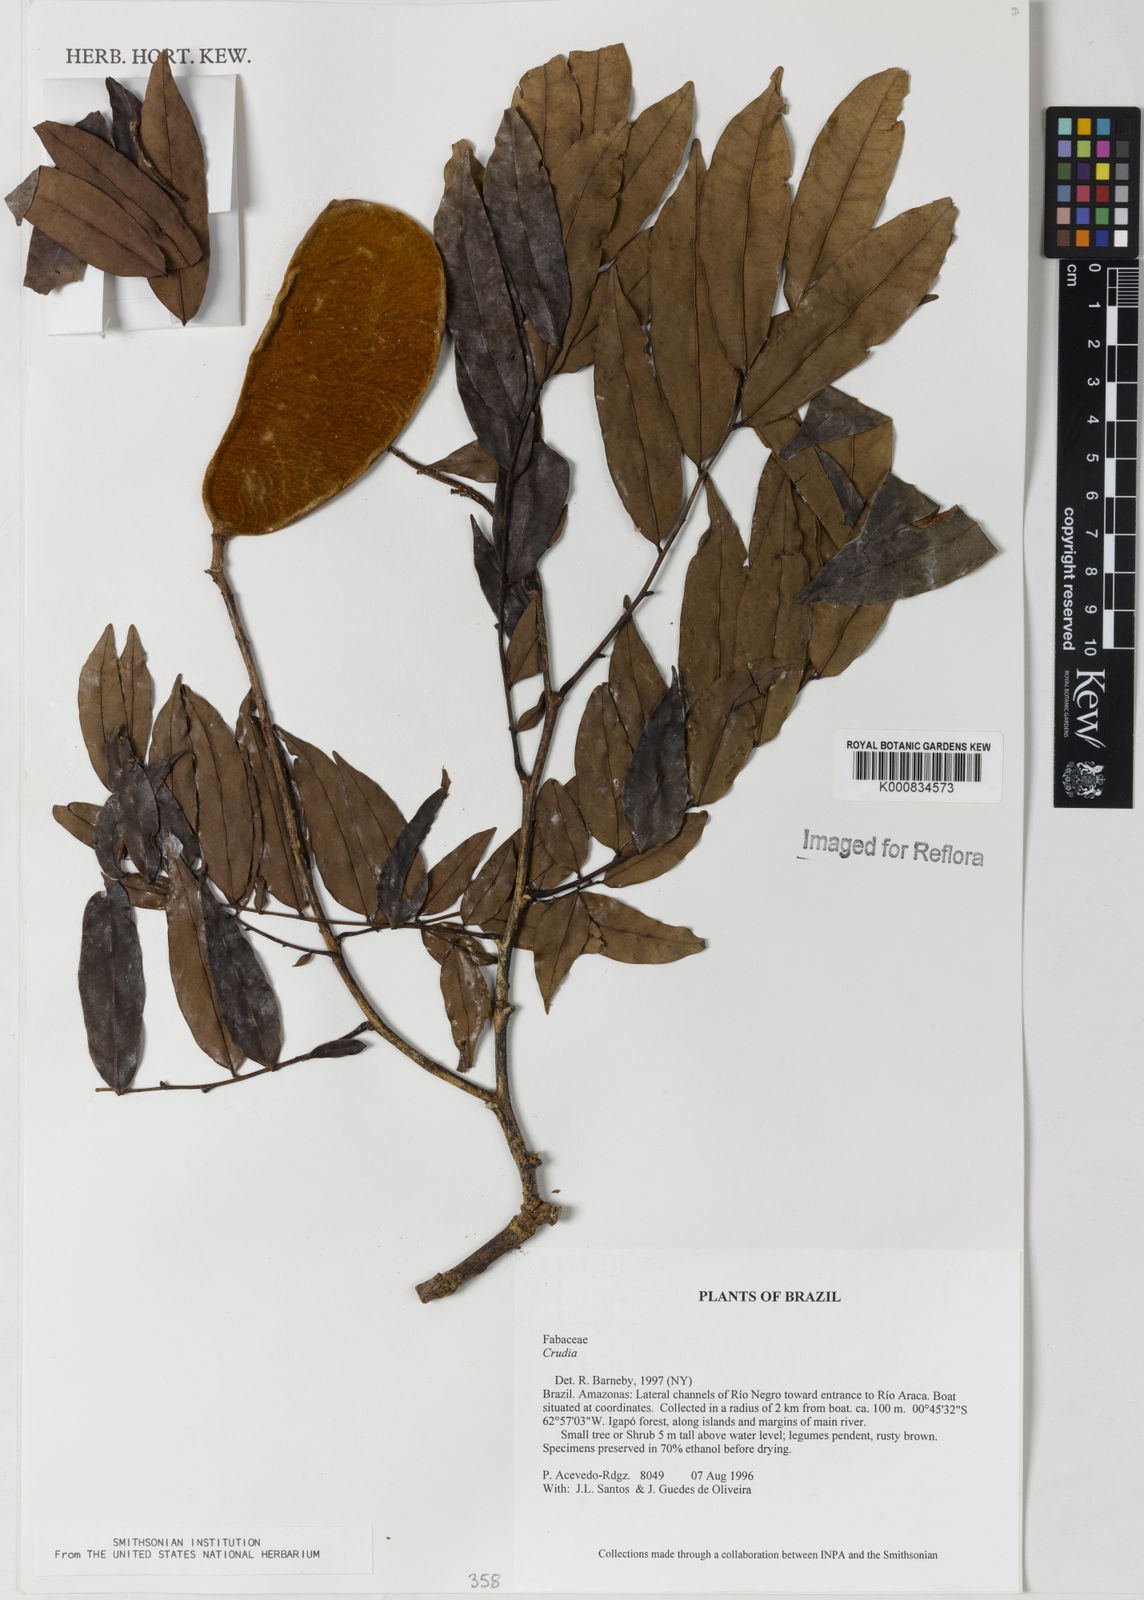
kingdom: Plantae
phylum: Tracheophyta
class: Magnoliopsida
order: Fabales
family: Fabaceae
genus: Crudia
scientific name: Crudia
